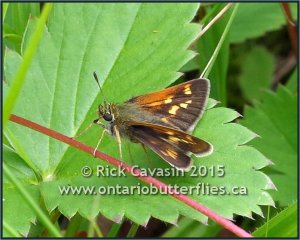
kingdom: Animalia
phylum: Arthropoda
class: Insecta
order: Lepidoptera
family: Hesperiidae
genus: Polites
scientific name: Polites
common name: Long Dash Skipper
